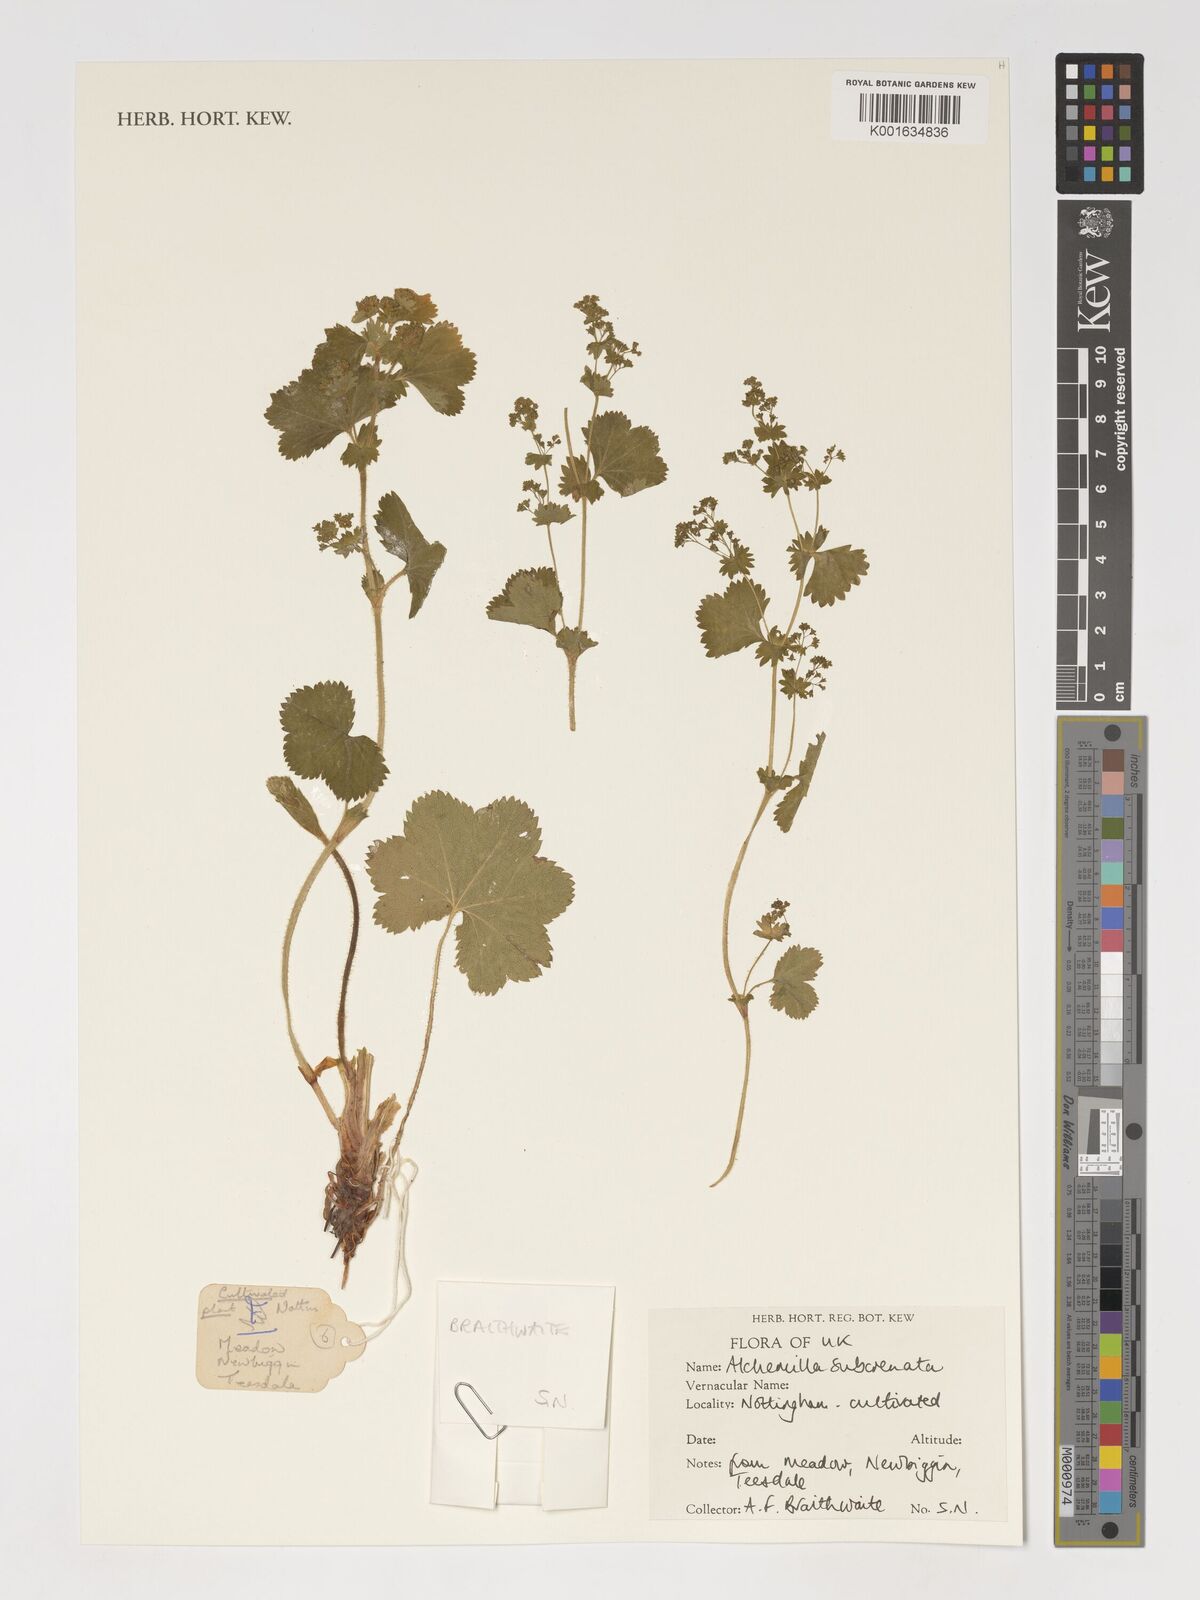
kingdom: Plantae
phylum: Tracheophyta
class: Magnoliopsida
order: Rosales
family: Rosaceae
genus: Alchemilla
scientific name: Alchemilla subcrenata
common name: Broadtooth lady's mantle
